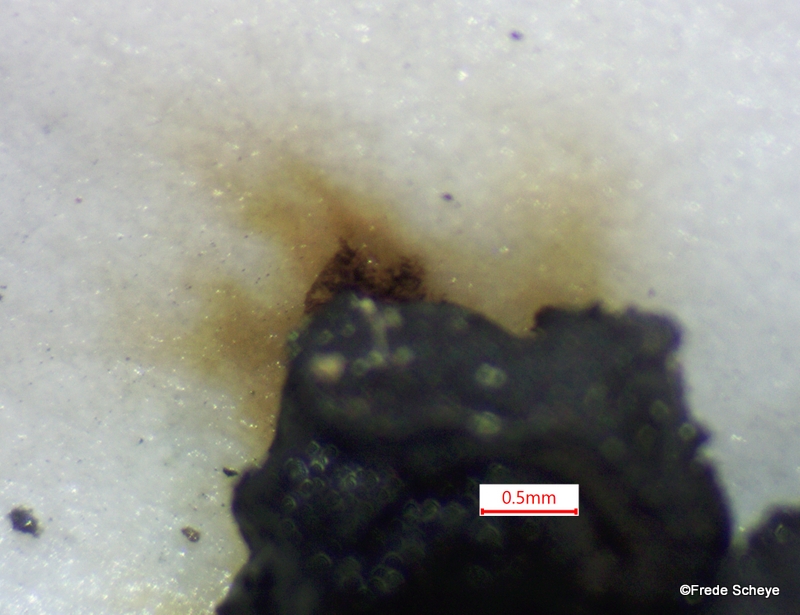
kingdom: Fungi
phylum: Ascomycota
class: Sordariomycetes
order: Xylariales
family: Hypoxylaceae
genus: Jackrogersella
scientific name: Jackrogersella cohaerens
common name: sammenflydende kulbær
